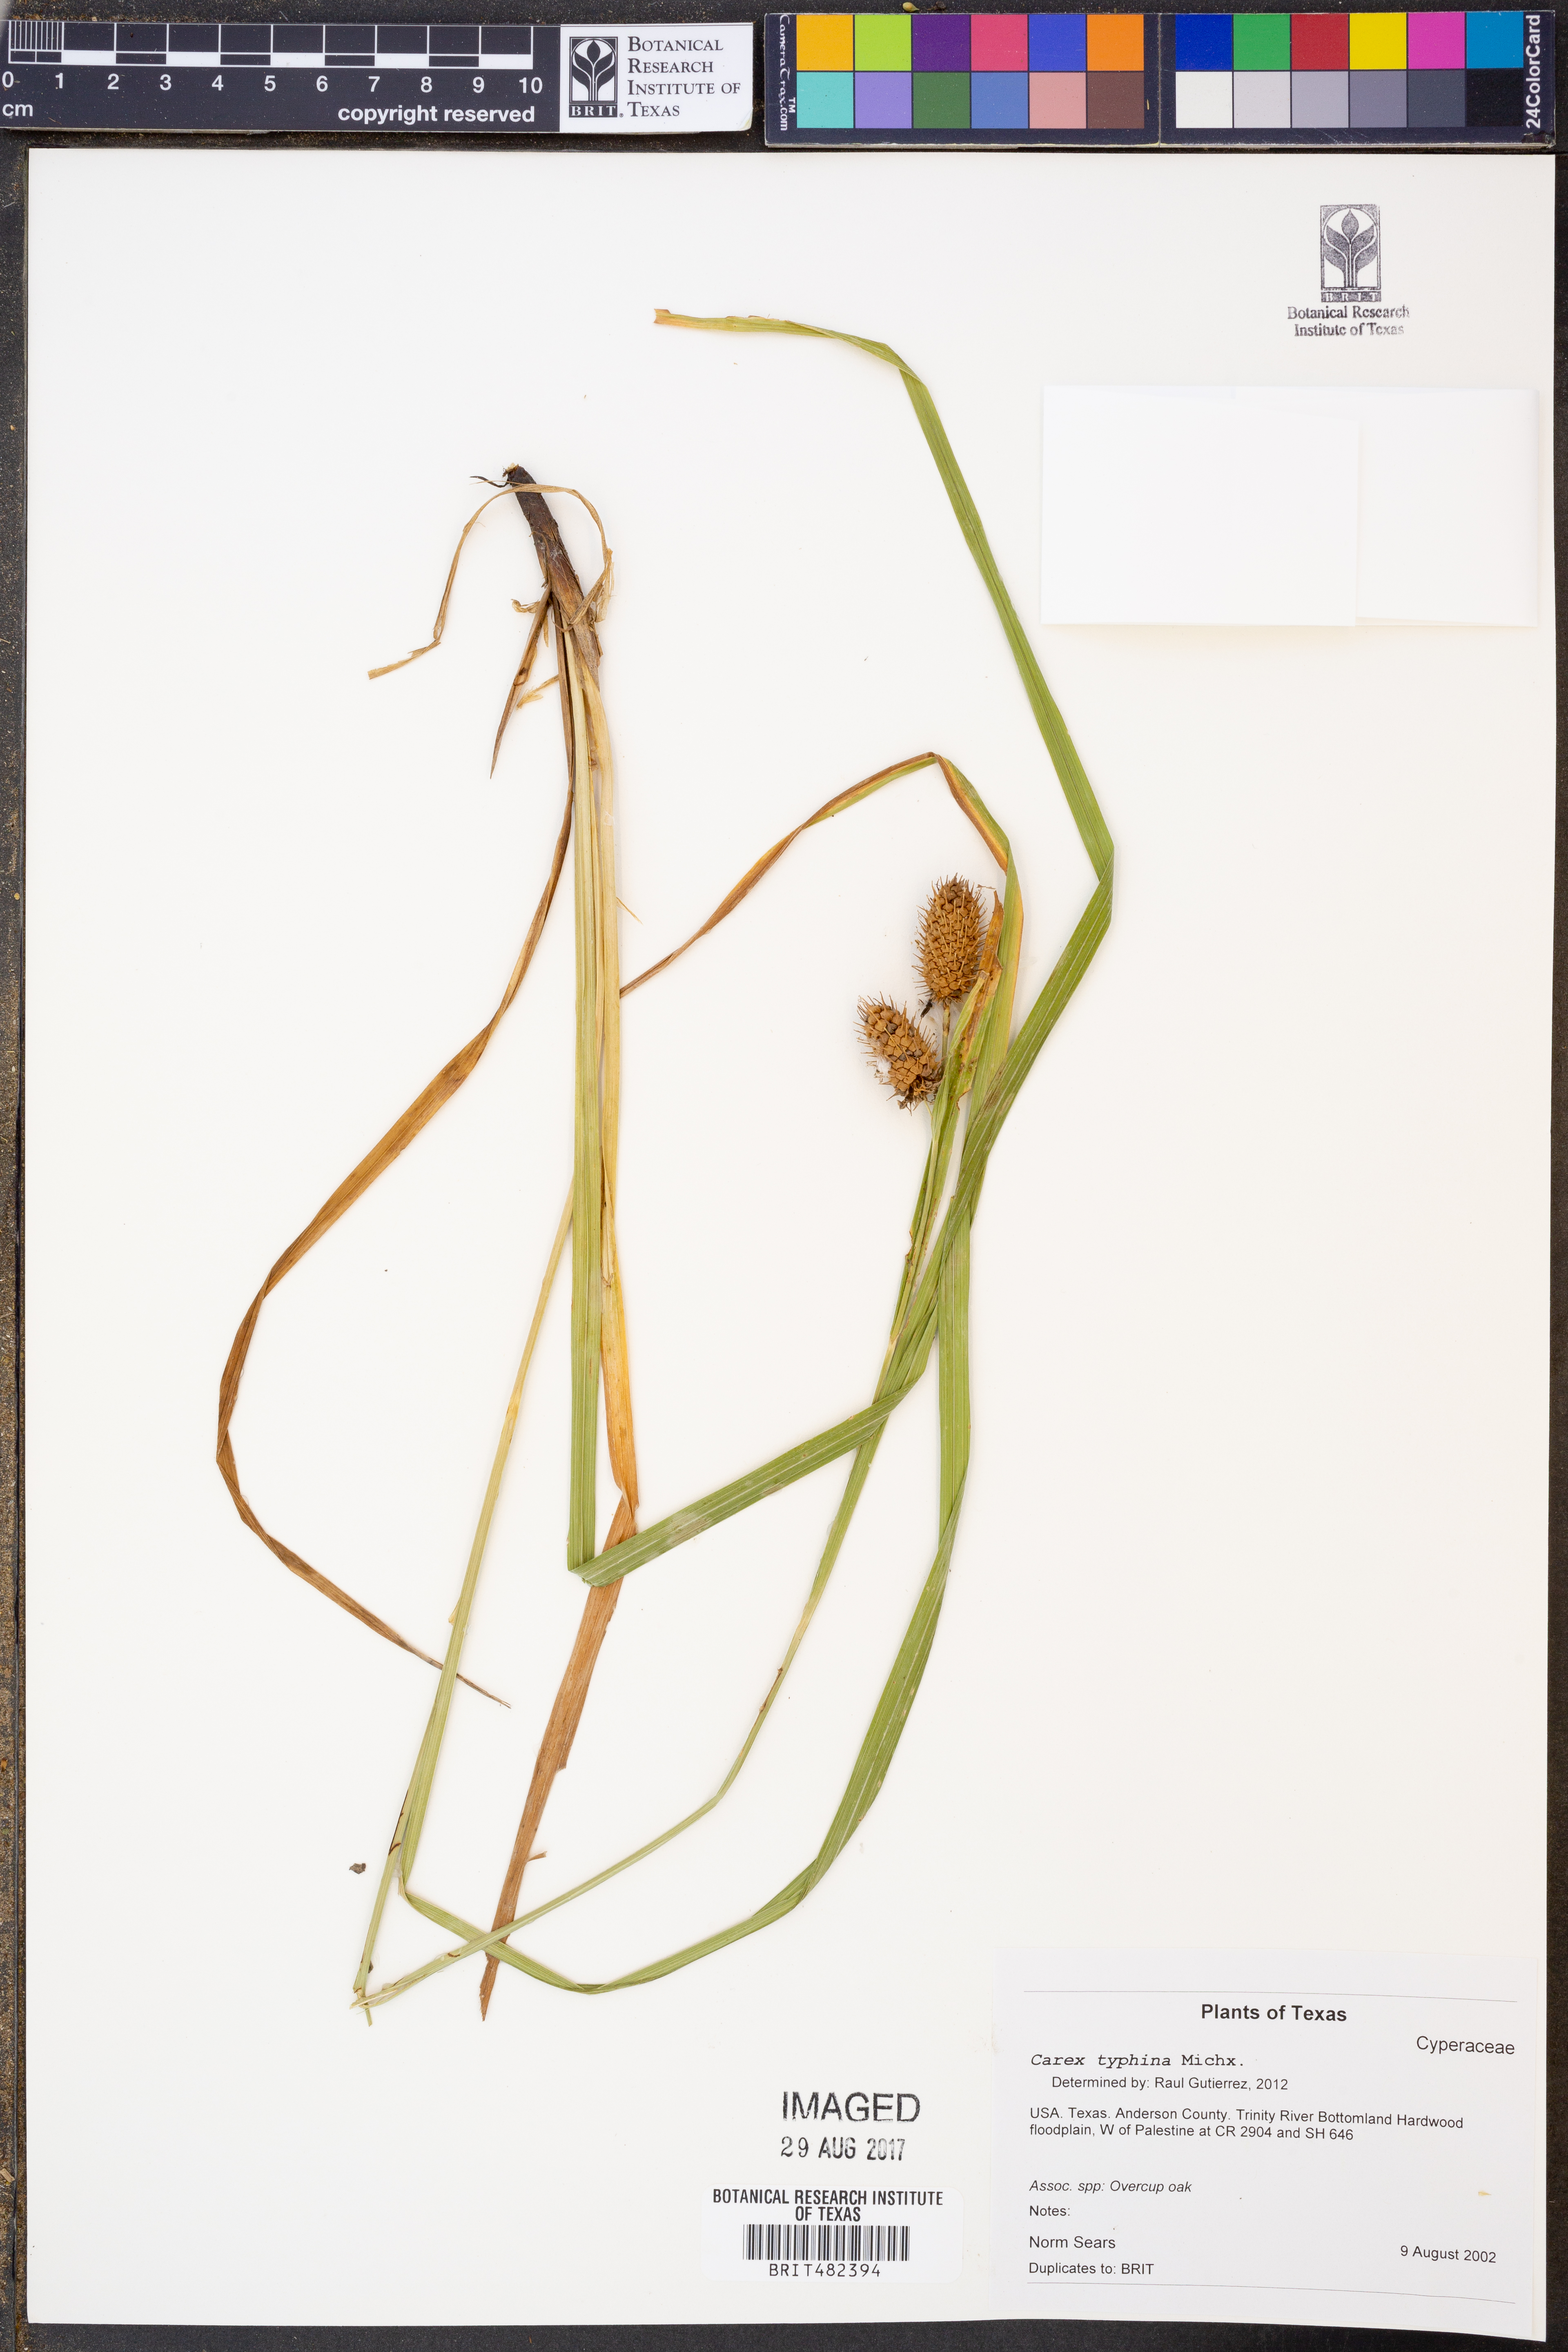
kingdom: Plantae
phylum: Tracheophyta
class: Liliopsida
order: Poales
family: Cyperaceae
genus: Carex
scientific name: Carex typhina
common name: Cattail sedge
